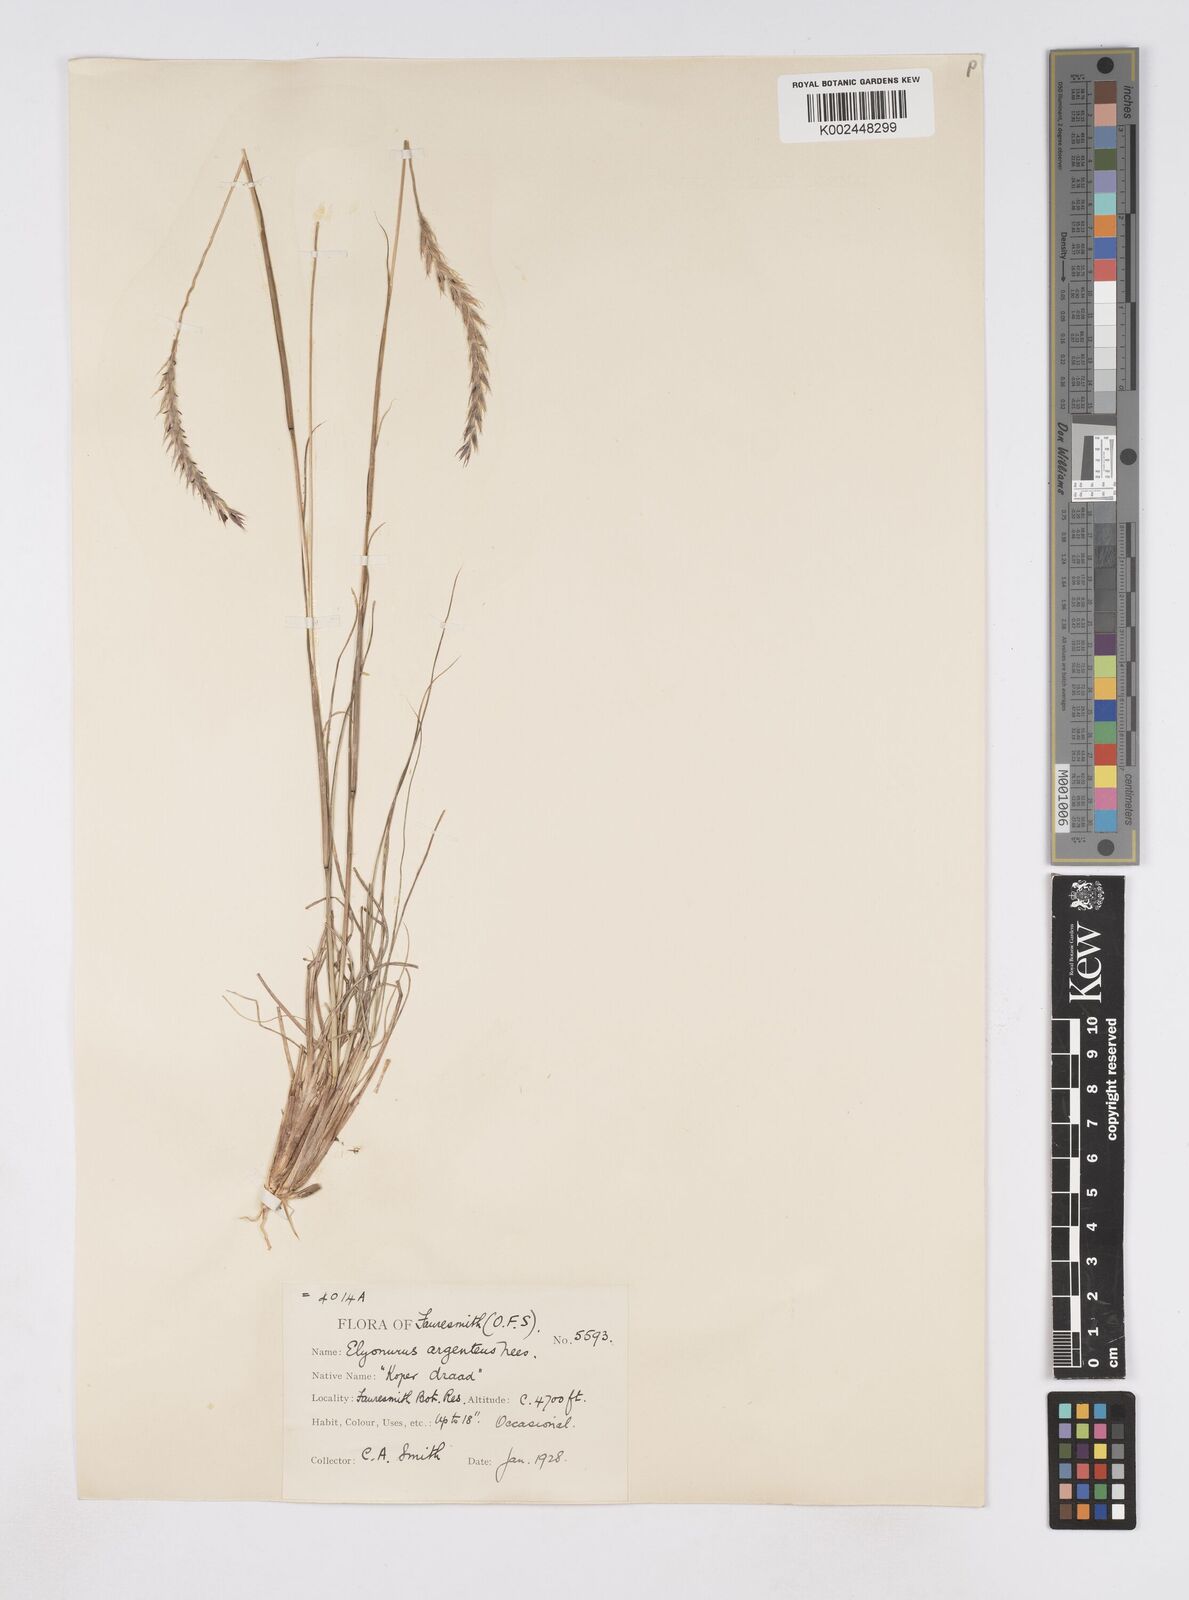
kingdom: Plantae
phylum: Tracheophyta
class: Liliopsida
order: Poales
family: Poaceae
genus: Elionurus
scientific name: Elionurus muticus
